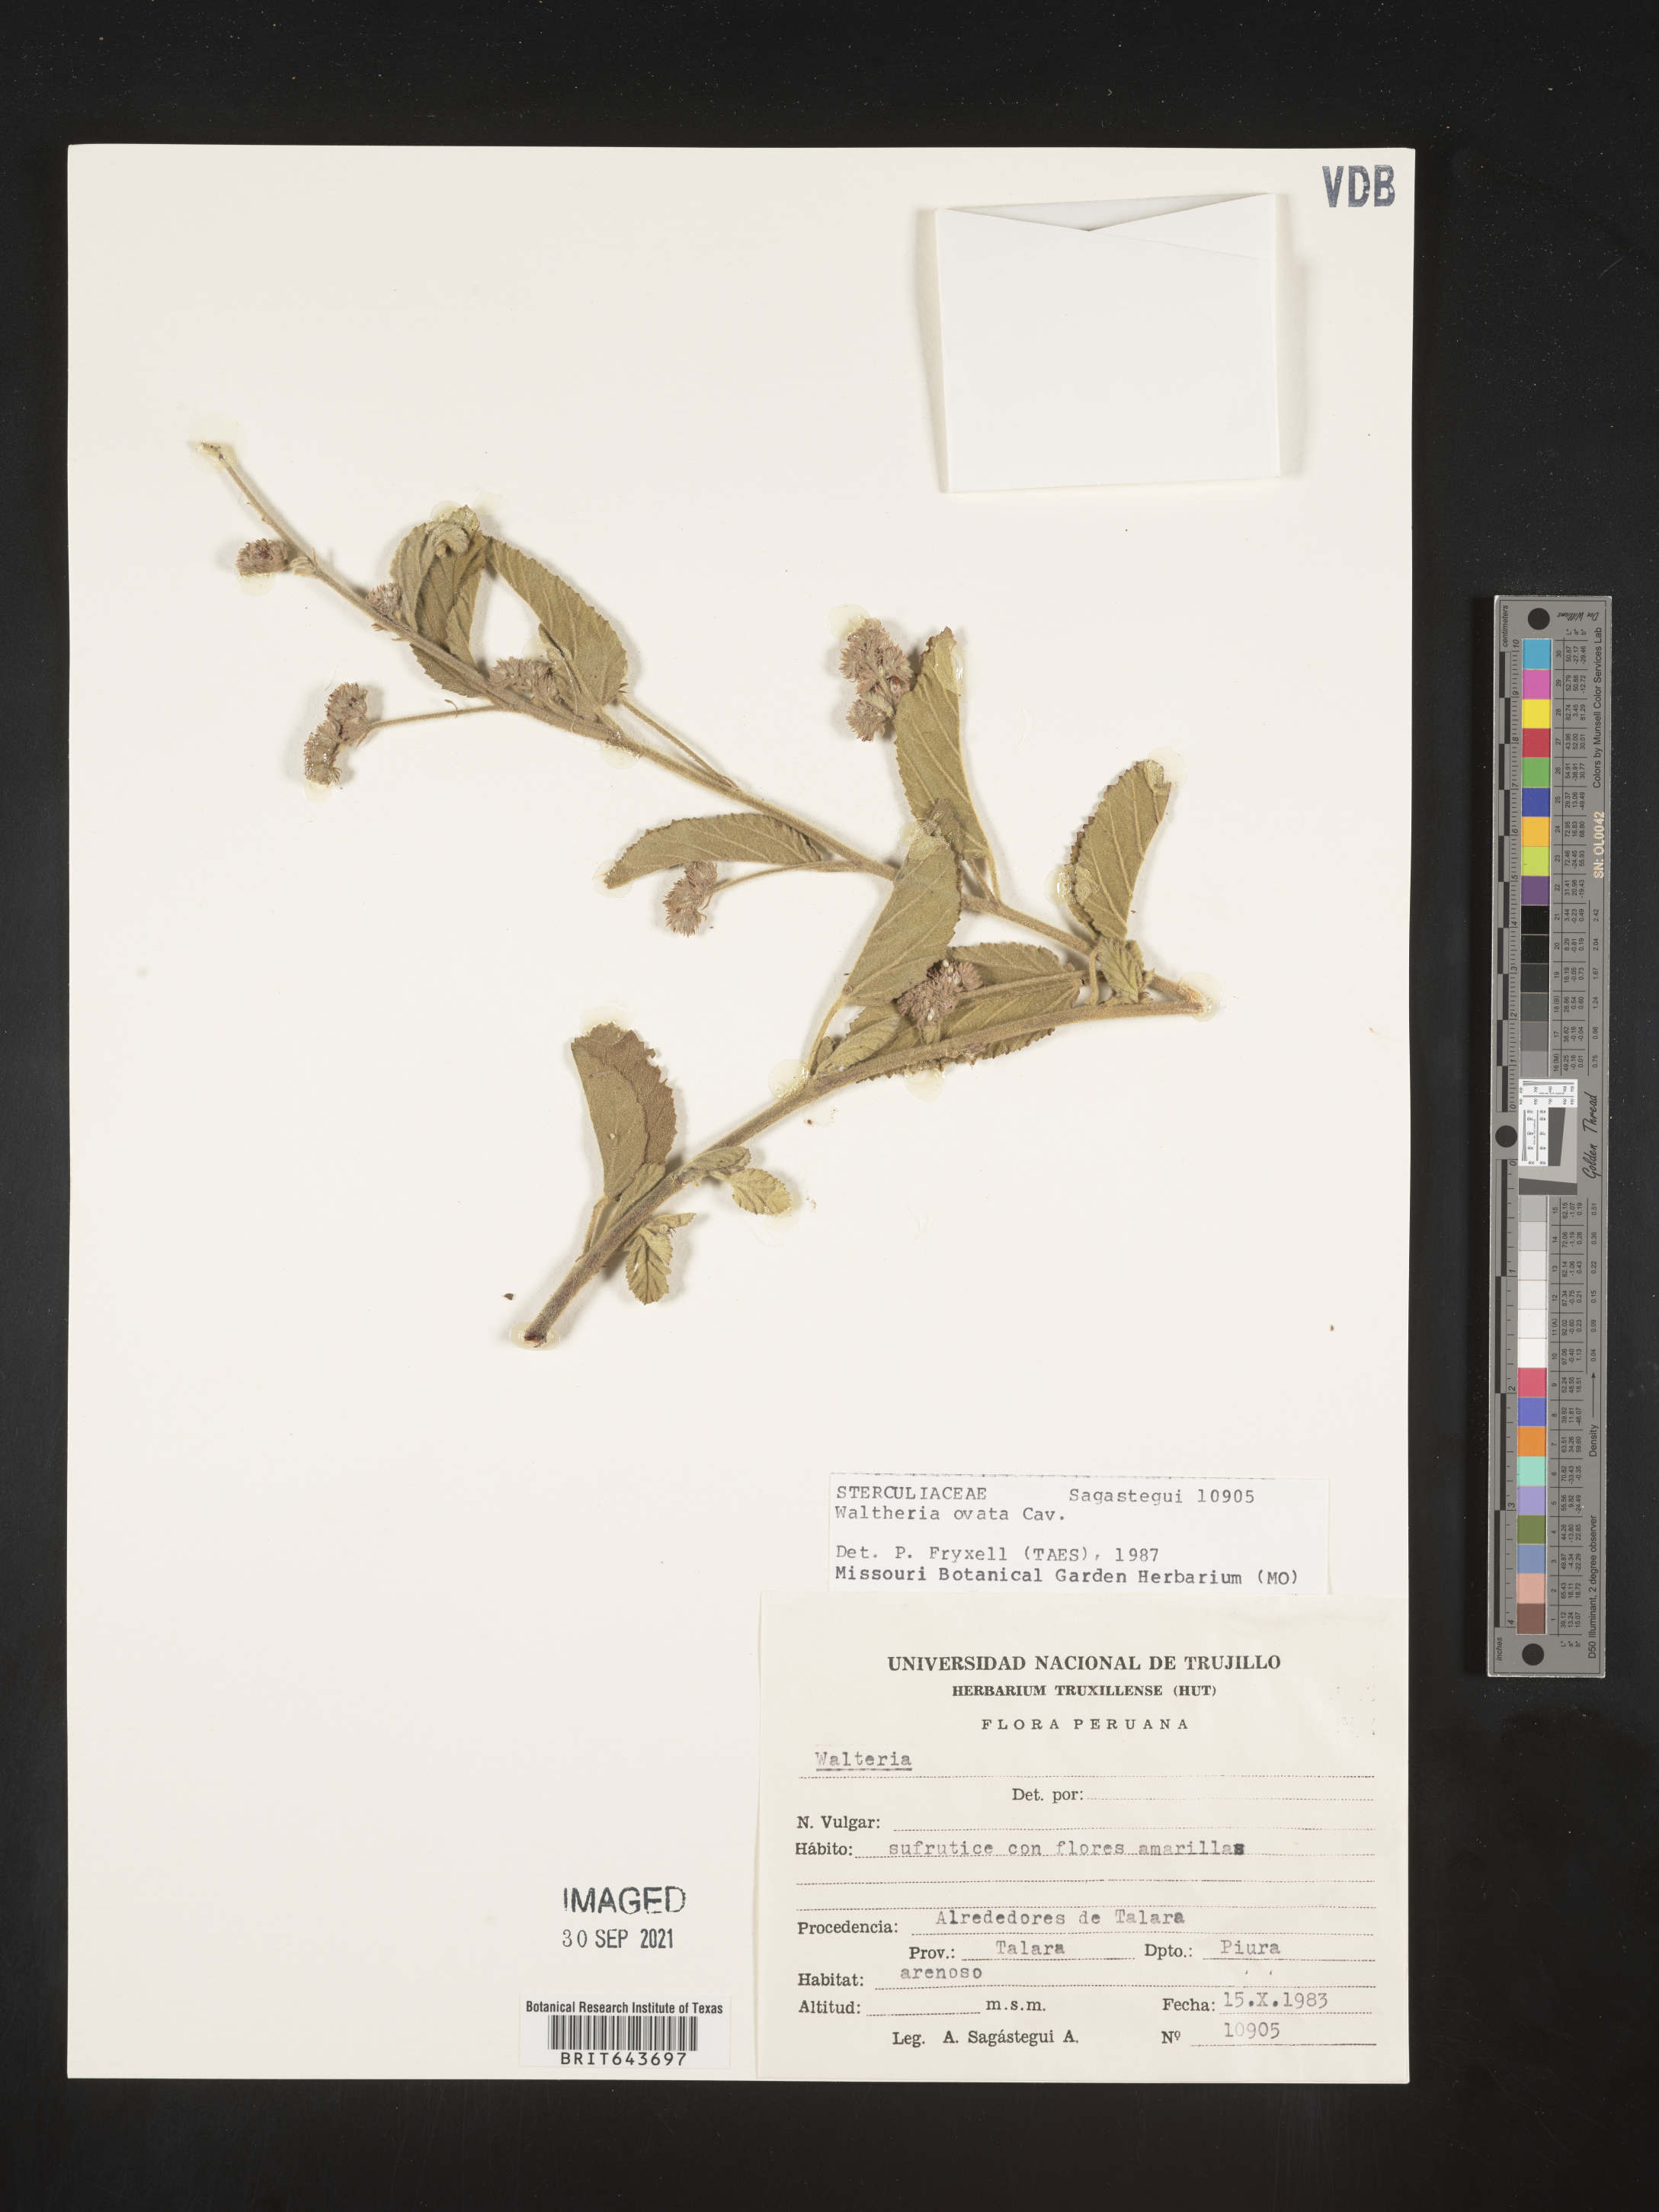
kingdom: Plantae
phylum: Tracheophyta
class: Magnoliopsida
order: Malvales
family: Malvaceae
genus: Waltheria
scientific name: Waltheria
